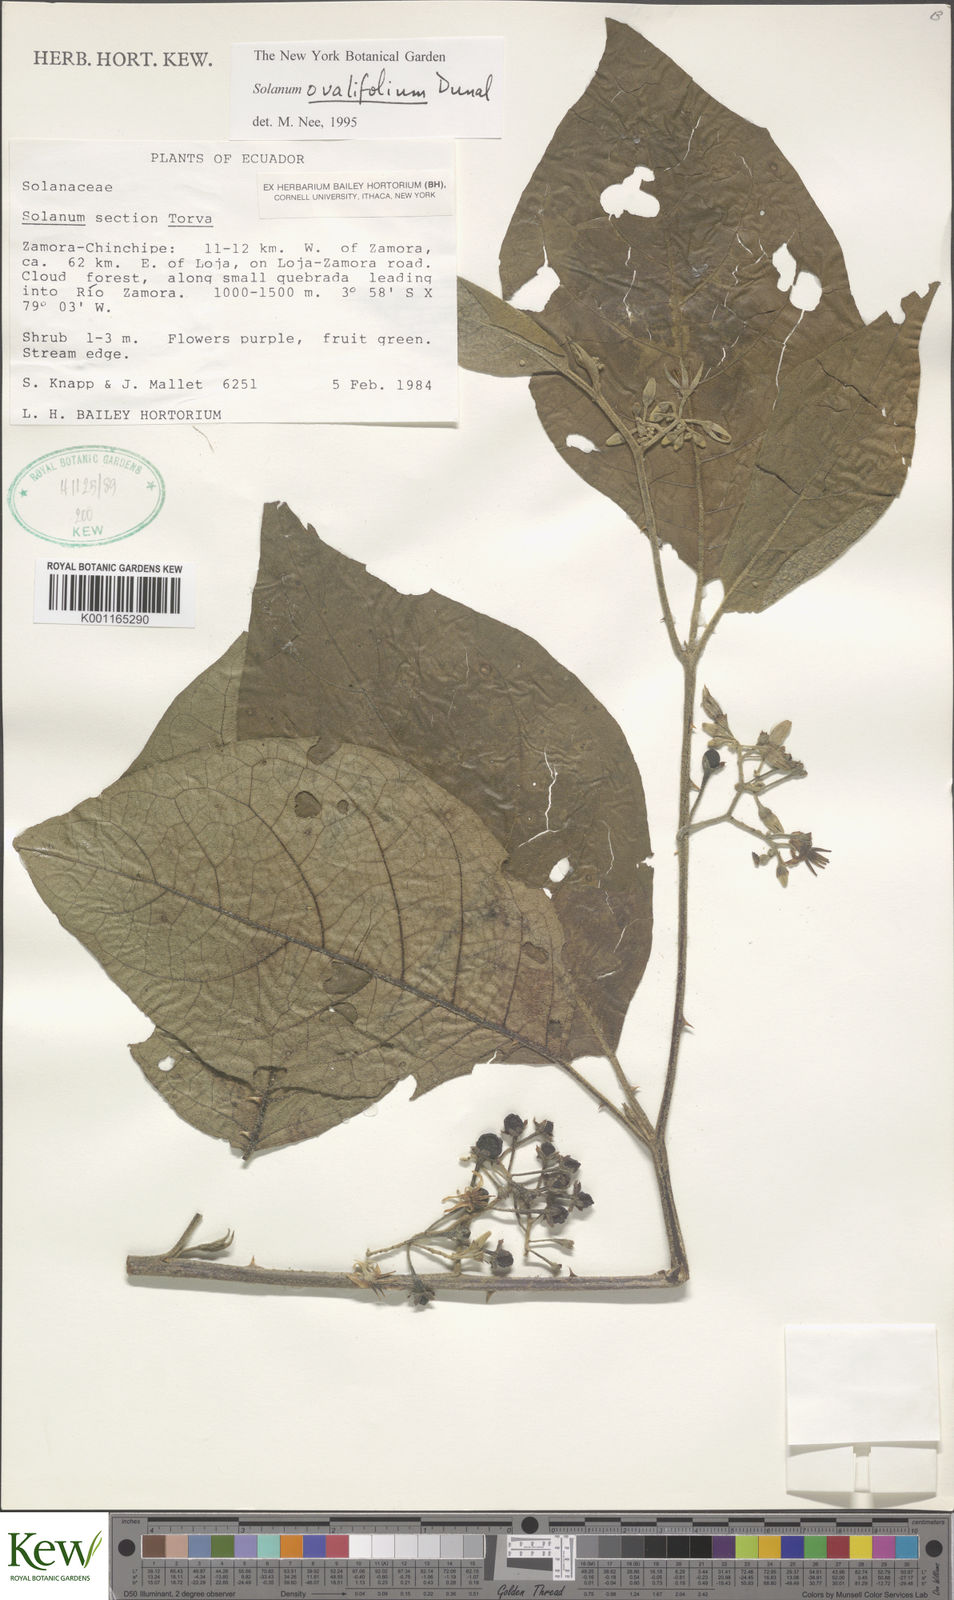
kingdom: Plantae
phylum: Tracheophyta
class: Magnoliopsida
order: Solanales
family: Solanaceae
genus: Solanum
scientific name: Solanum ovalifolium
